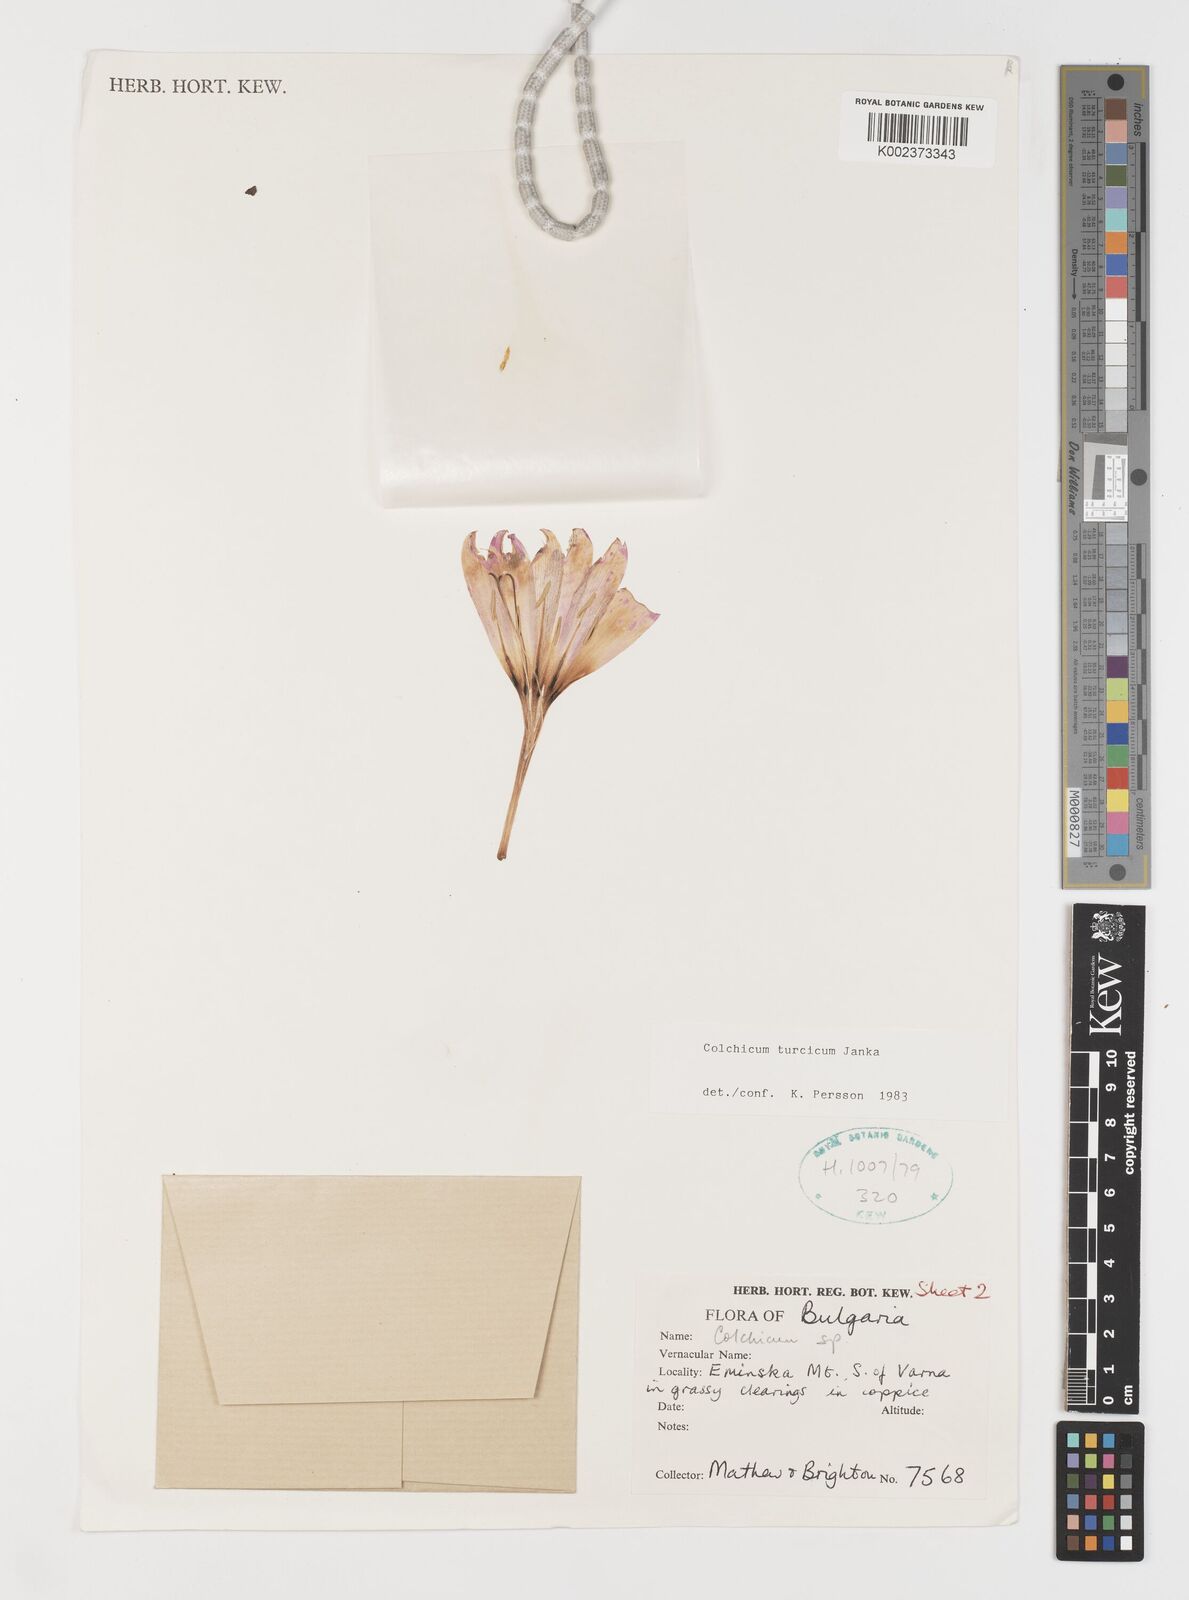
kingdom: Plantae
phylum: Tracheophyta
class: Liliopsida
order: Liliales
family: Colchicaceae
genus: Colchicum
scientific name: Colchicum turcicum
